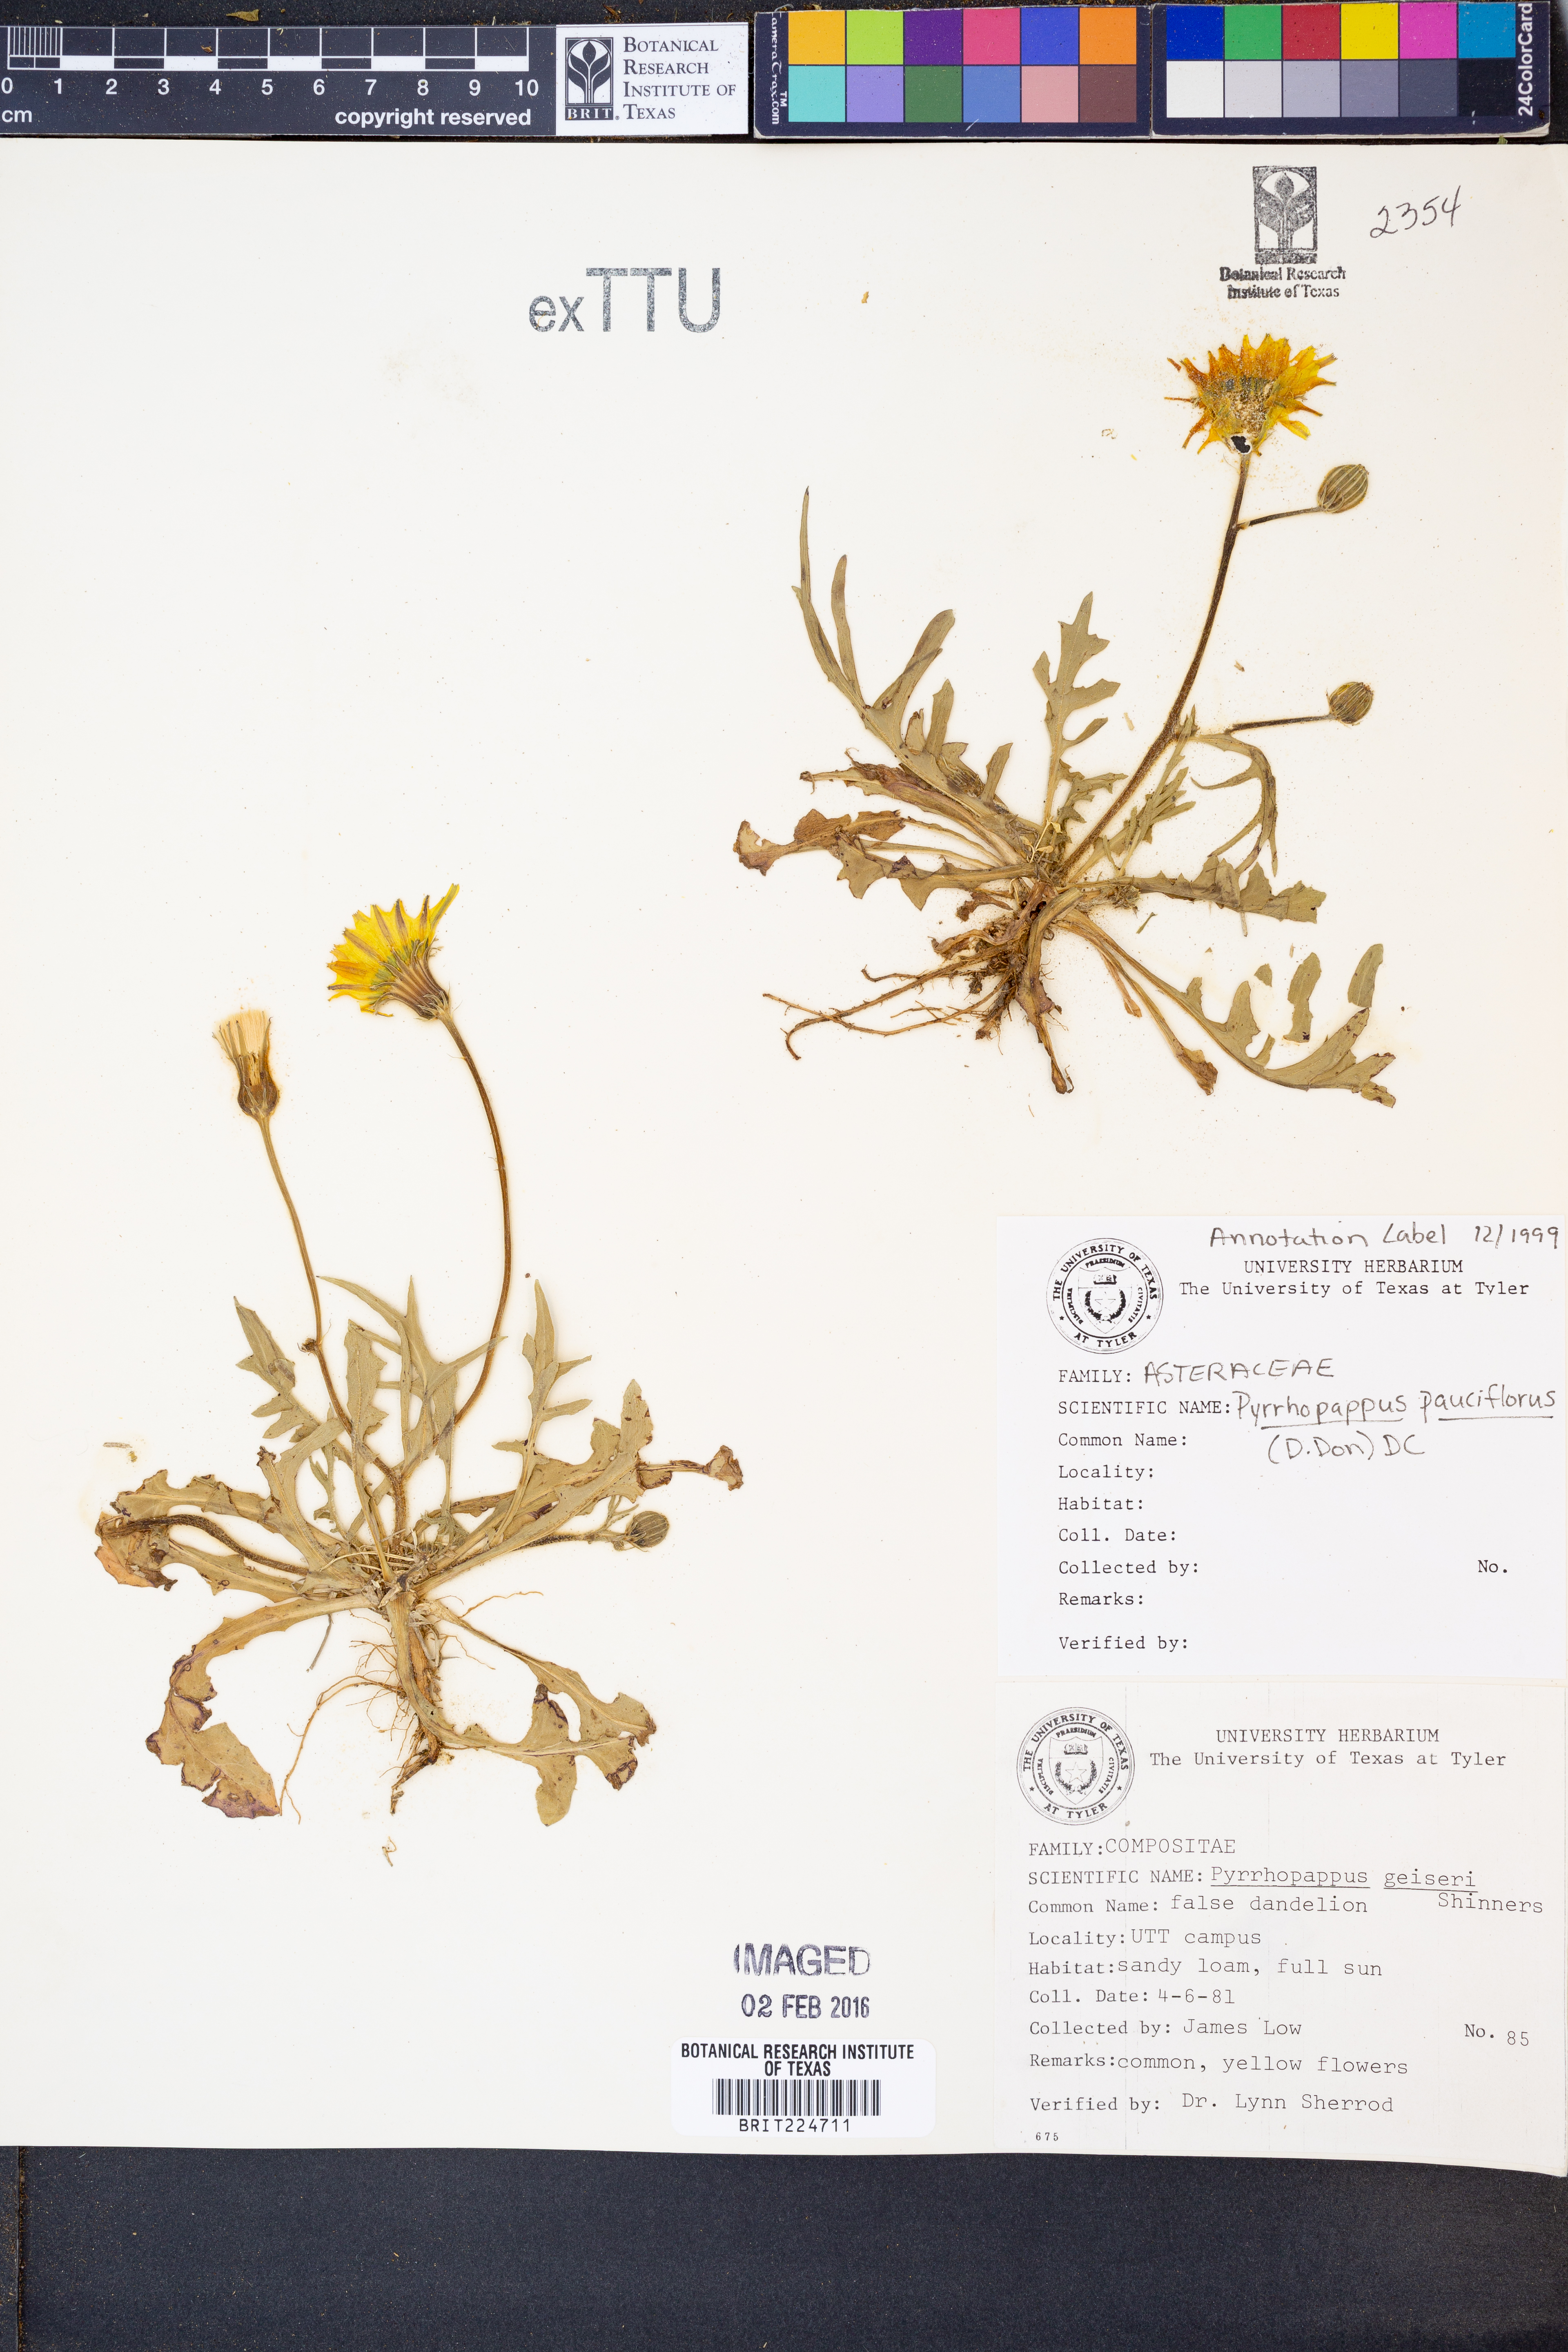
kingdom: Plantae
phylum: Tracheophyta
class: Magnoliopsida
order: Asterales
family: Asteraceae
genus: Pyrrhopappus
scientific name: Pyrrhopappus pauciflorus
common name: Texas false dandelion
